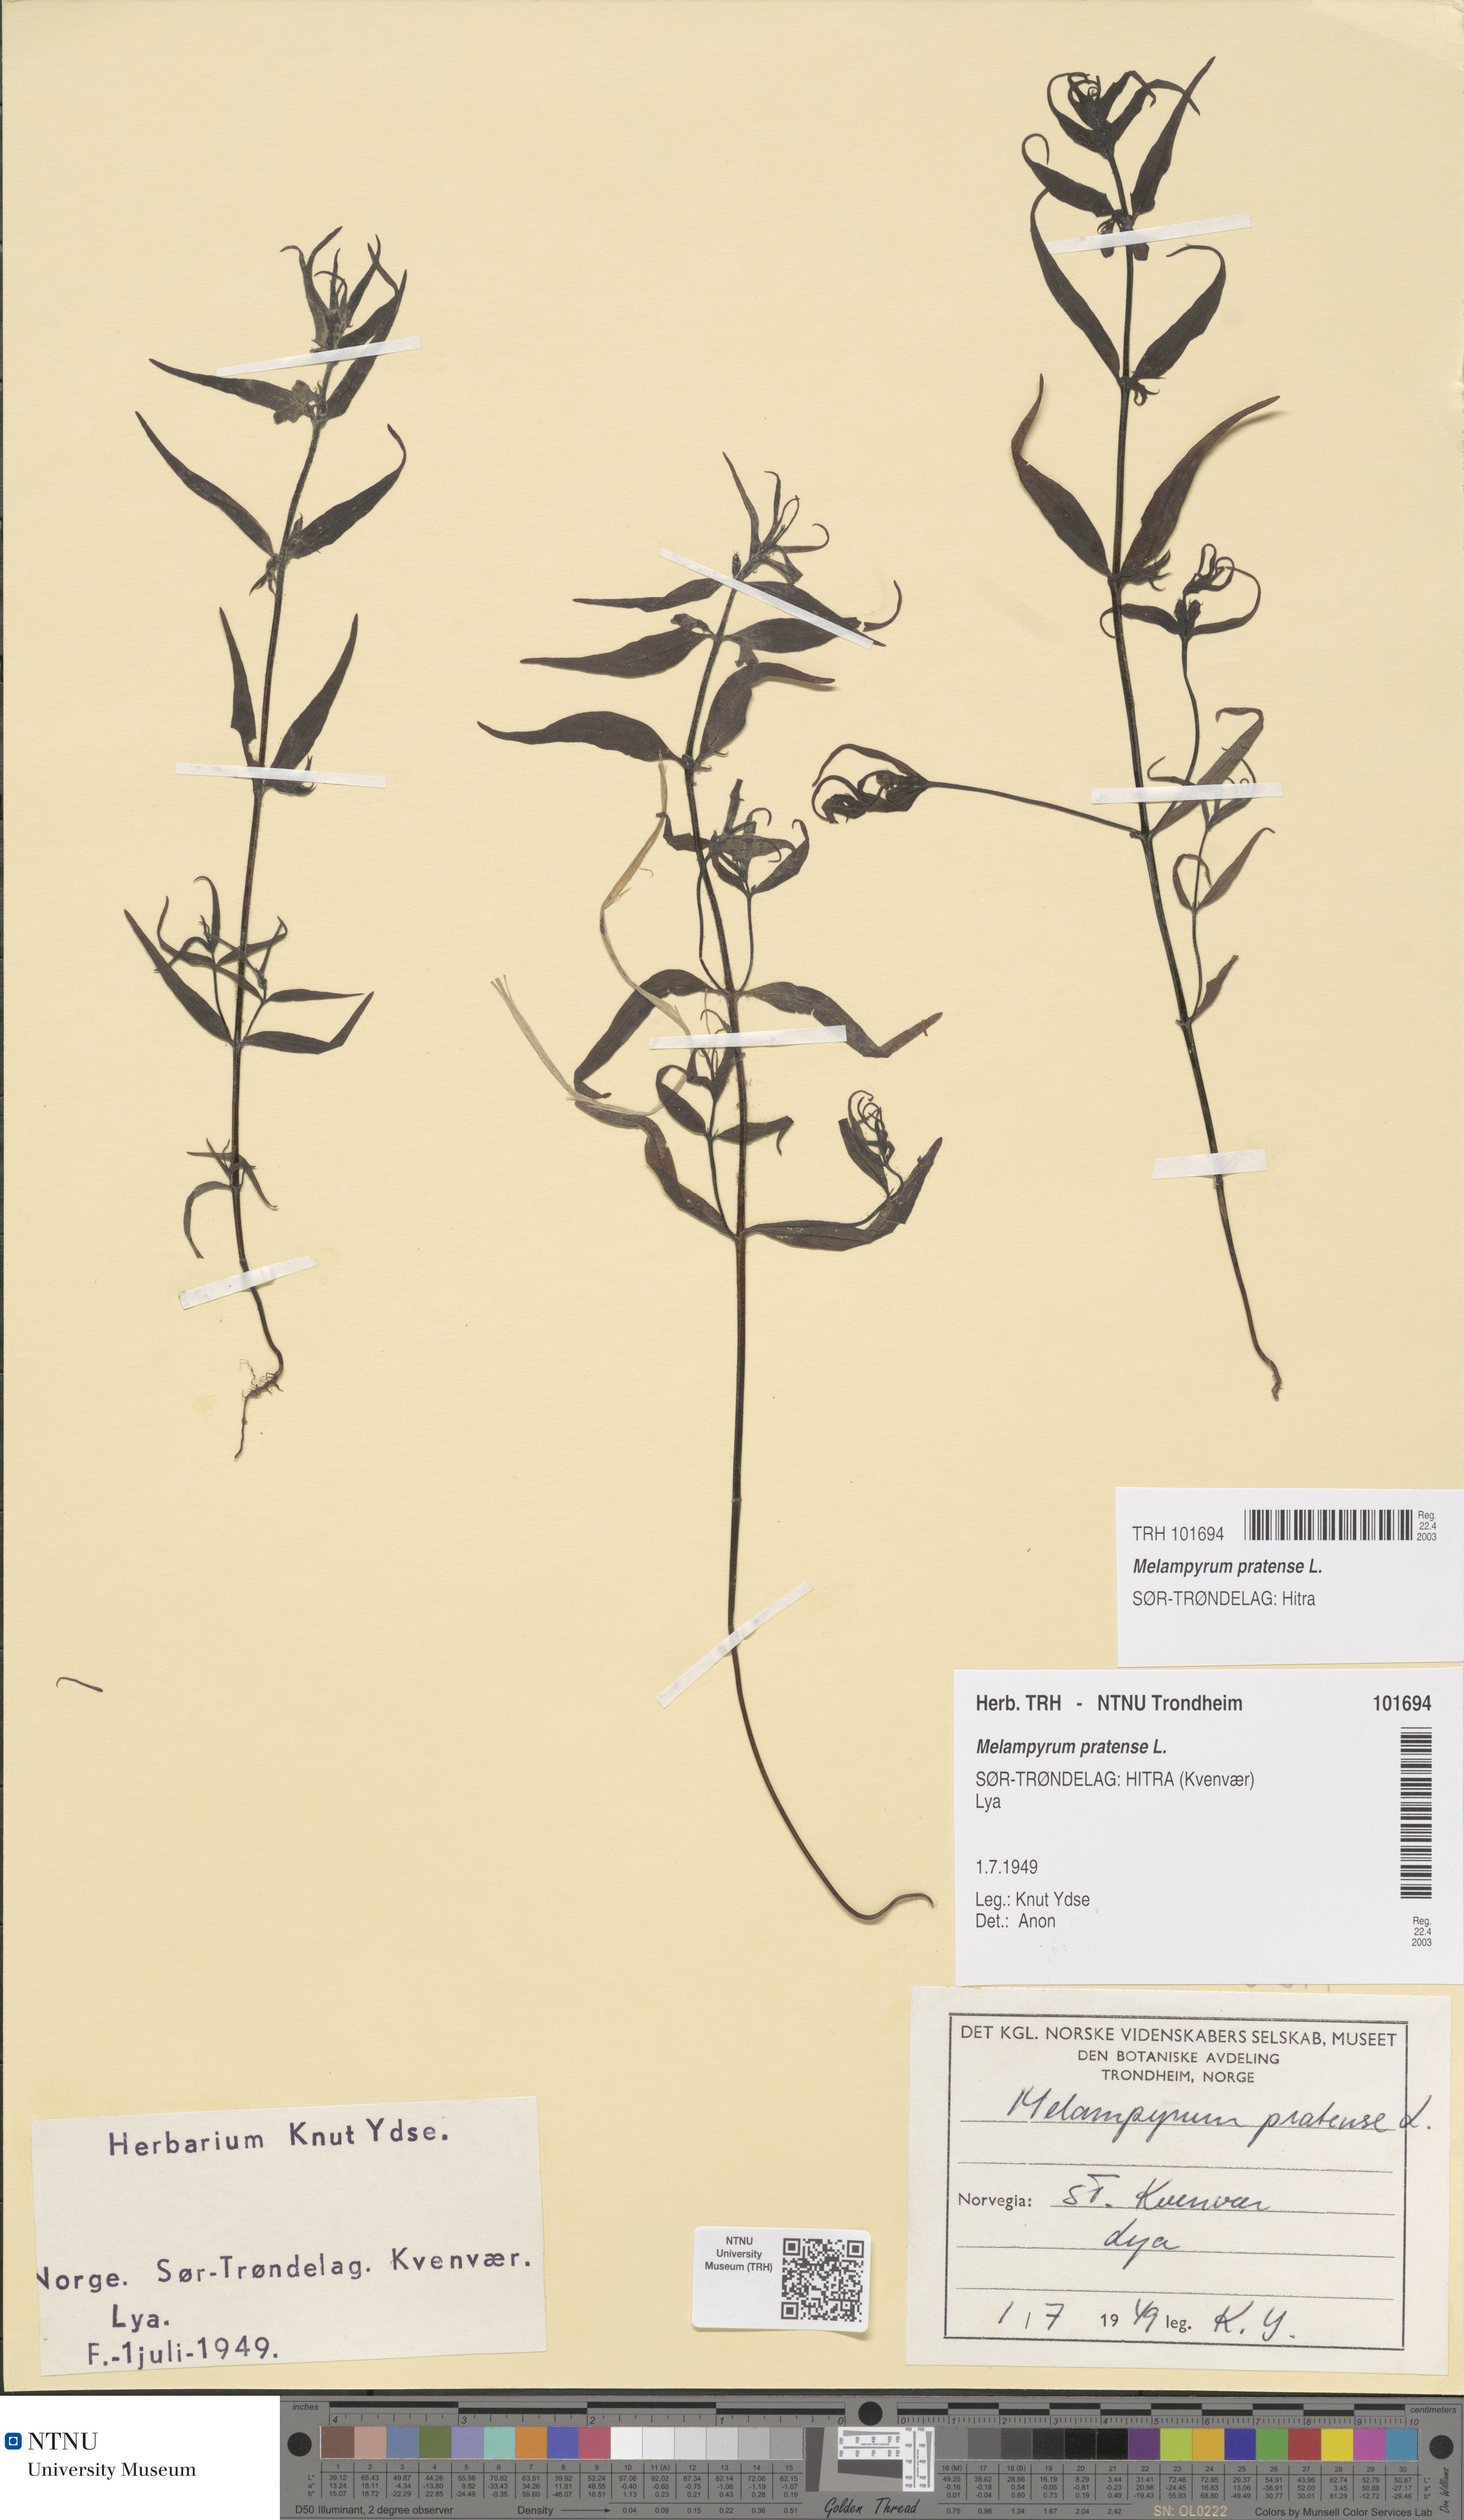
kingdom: Plantae
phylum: Tracheophyta
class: Magnoliopsida
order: Lamiales
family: Orobanchaceae
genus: Melampyrum
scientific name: Melampyrum pratense
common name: Common cow-wheat
